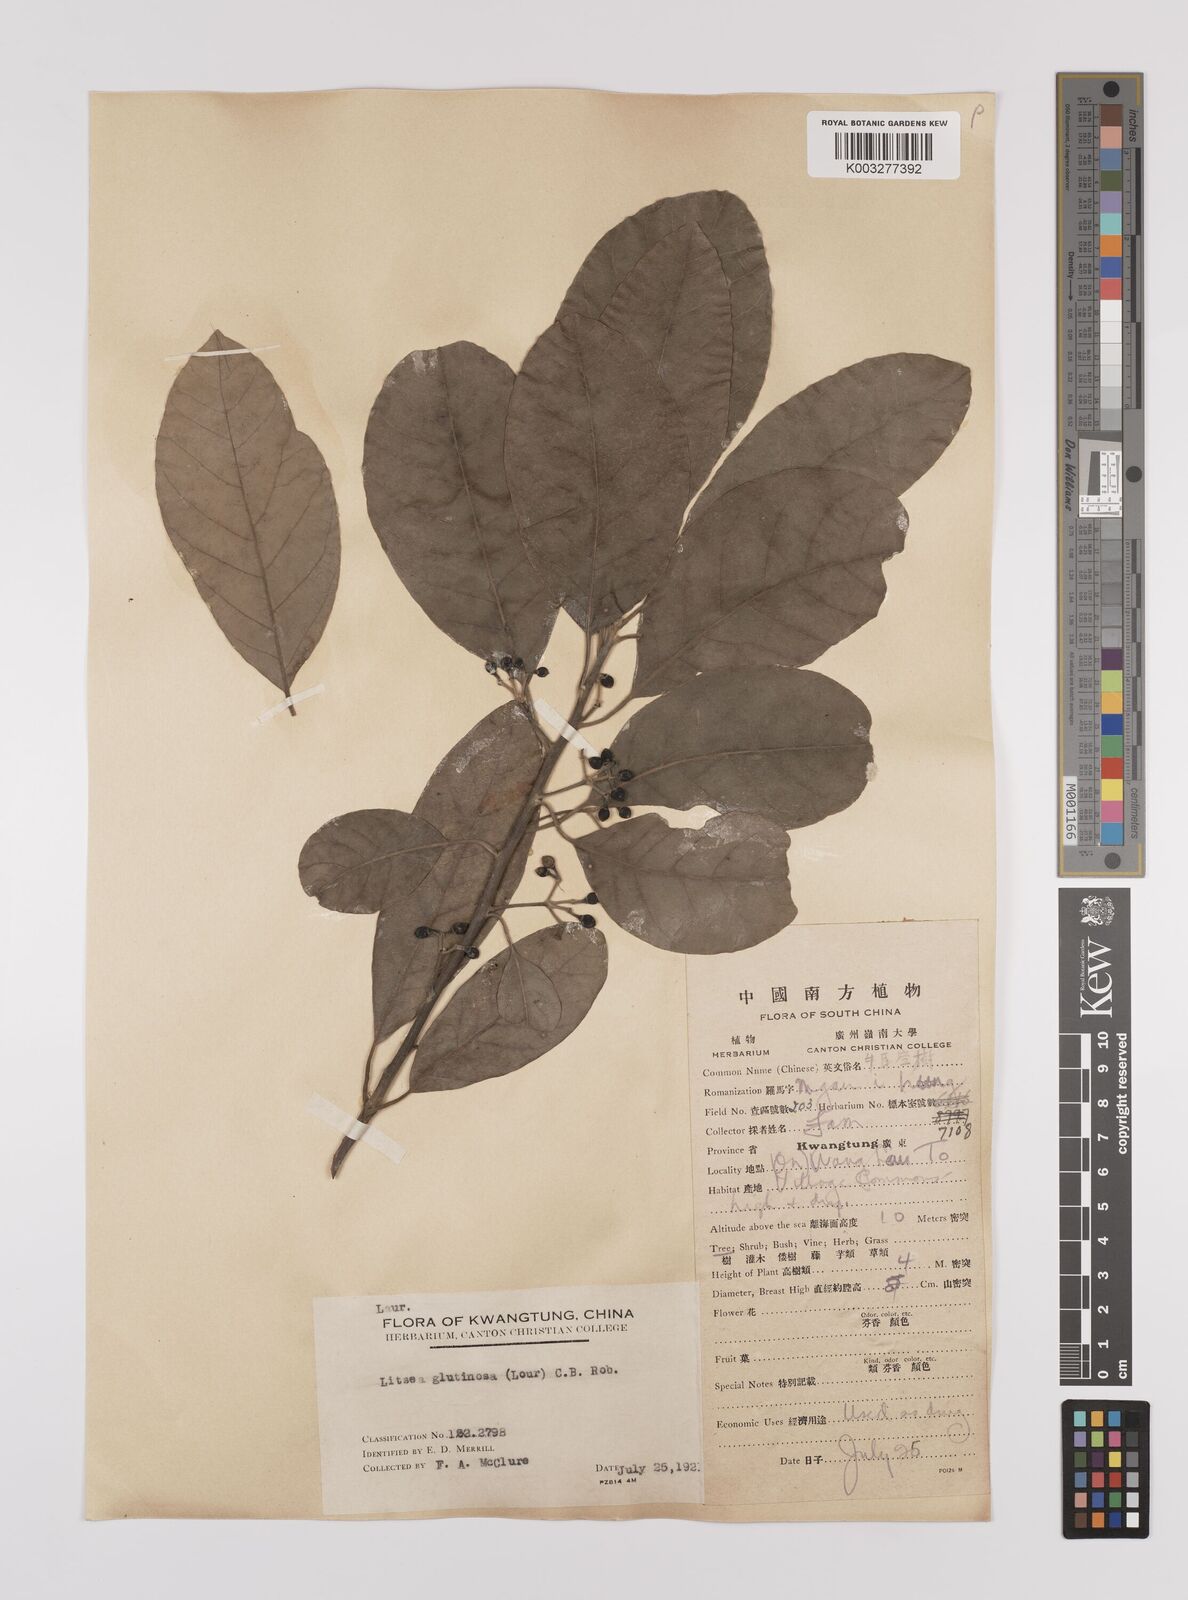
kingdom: Plantae
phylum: Tracheophyta
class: Magnoliopsida
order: Laurales
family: Lauraceae
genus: Litsea
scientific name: Litsea glutinosa
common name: Indian-laurel
